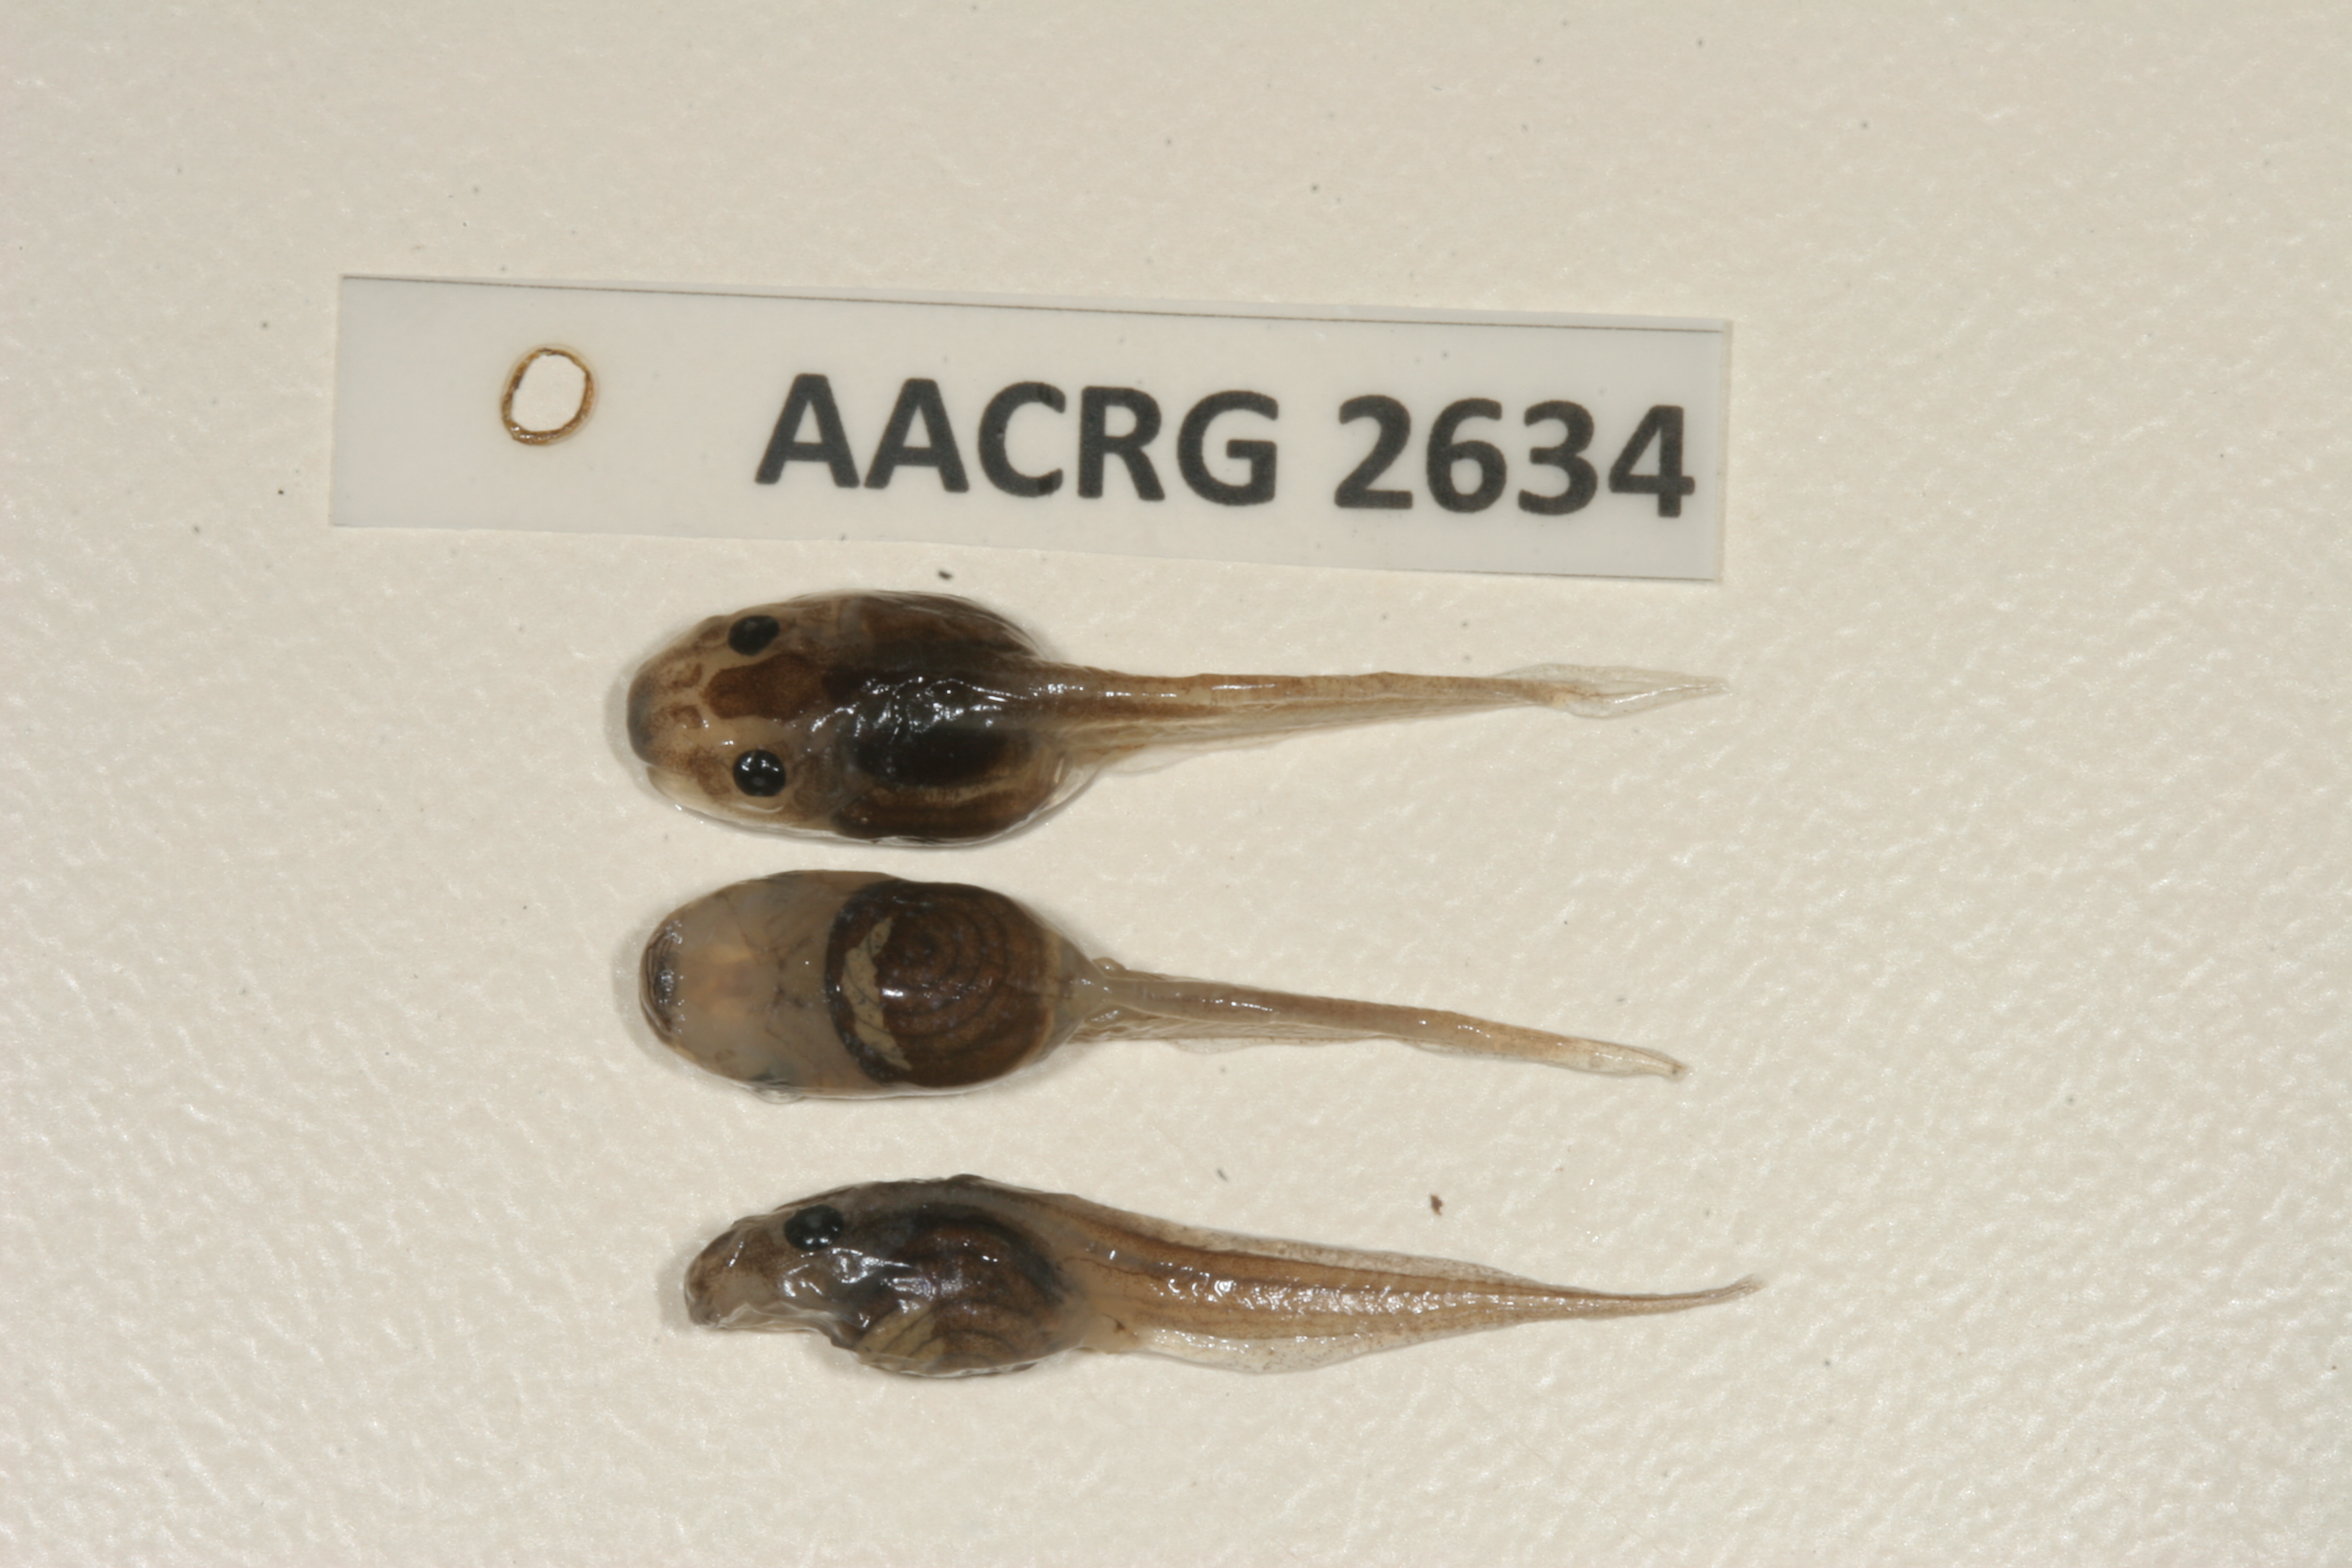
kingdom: Animalia
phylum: Chordata
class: Amphibia
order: Anura
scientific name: Anura
